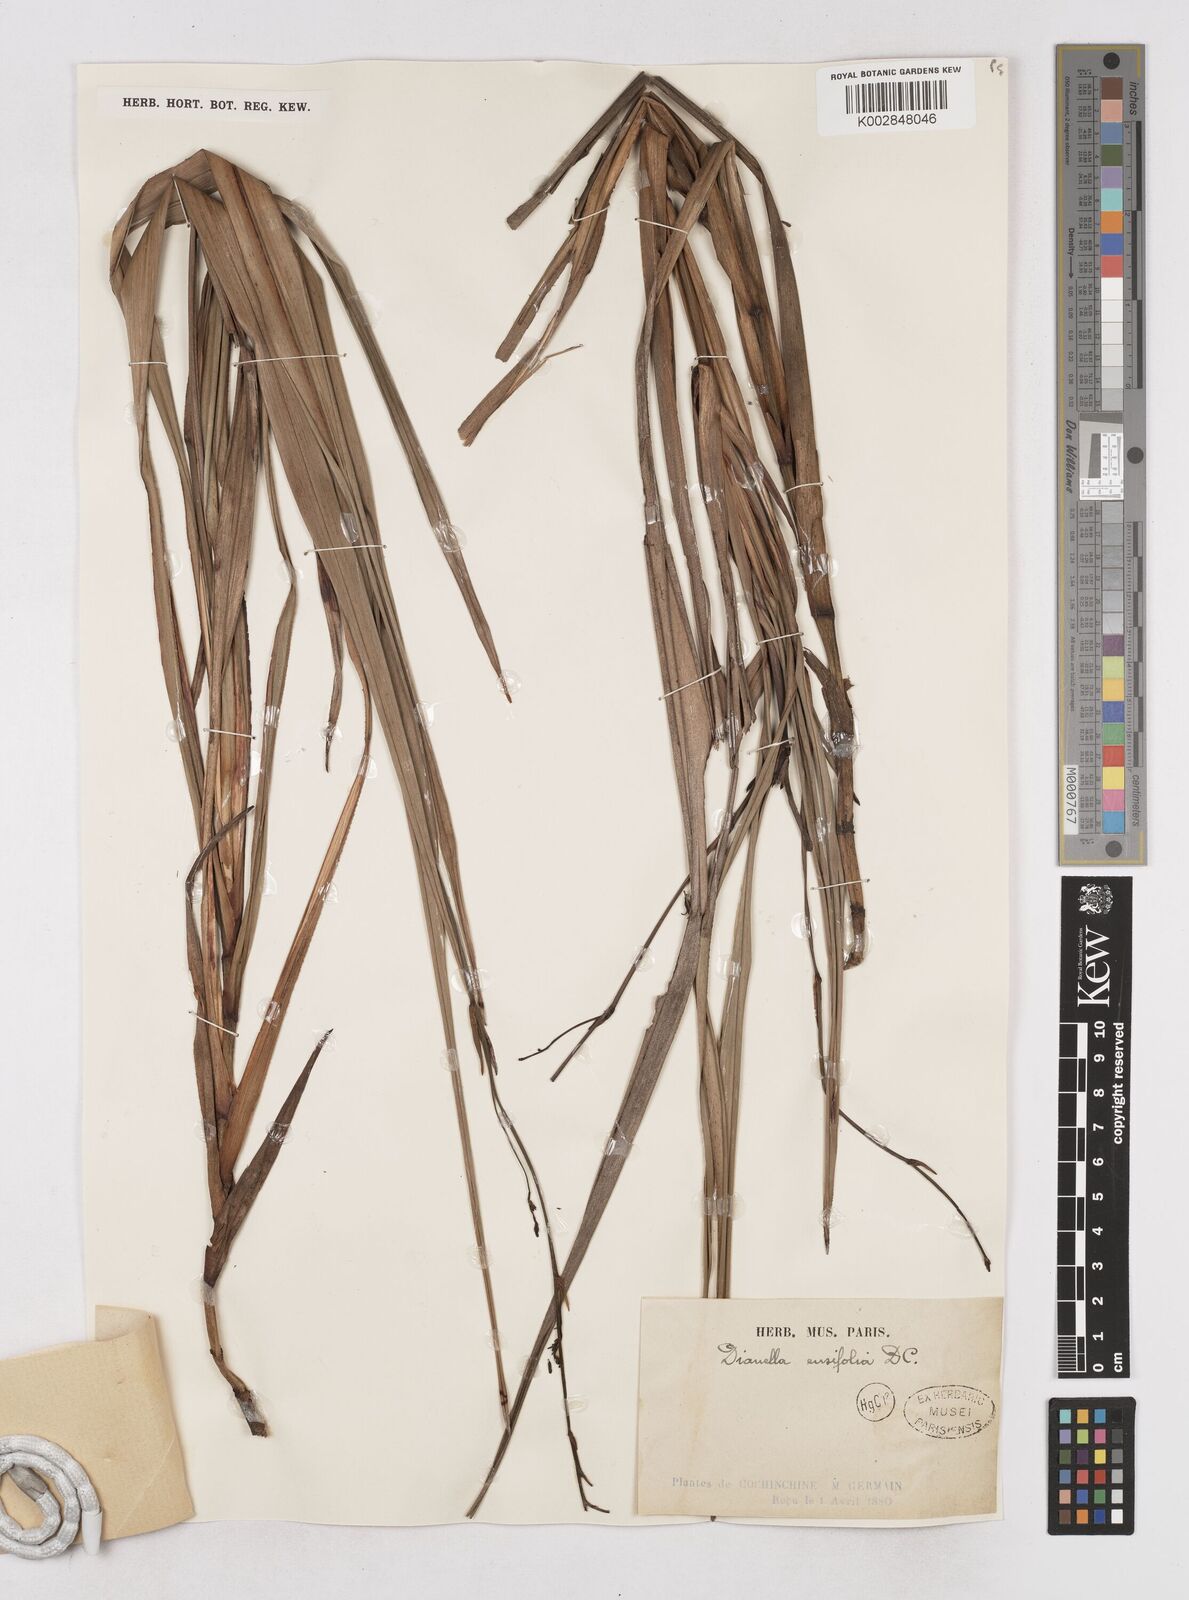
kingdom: Plantae
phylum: Tracheophyta
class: Liliopsida
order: Asparagales
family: Asphodelaceae
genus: Dianella
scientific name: Dianella ensifolia
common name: New zealand lilyplant
